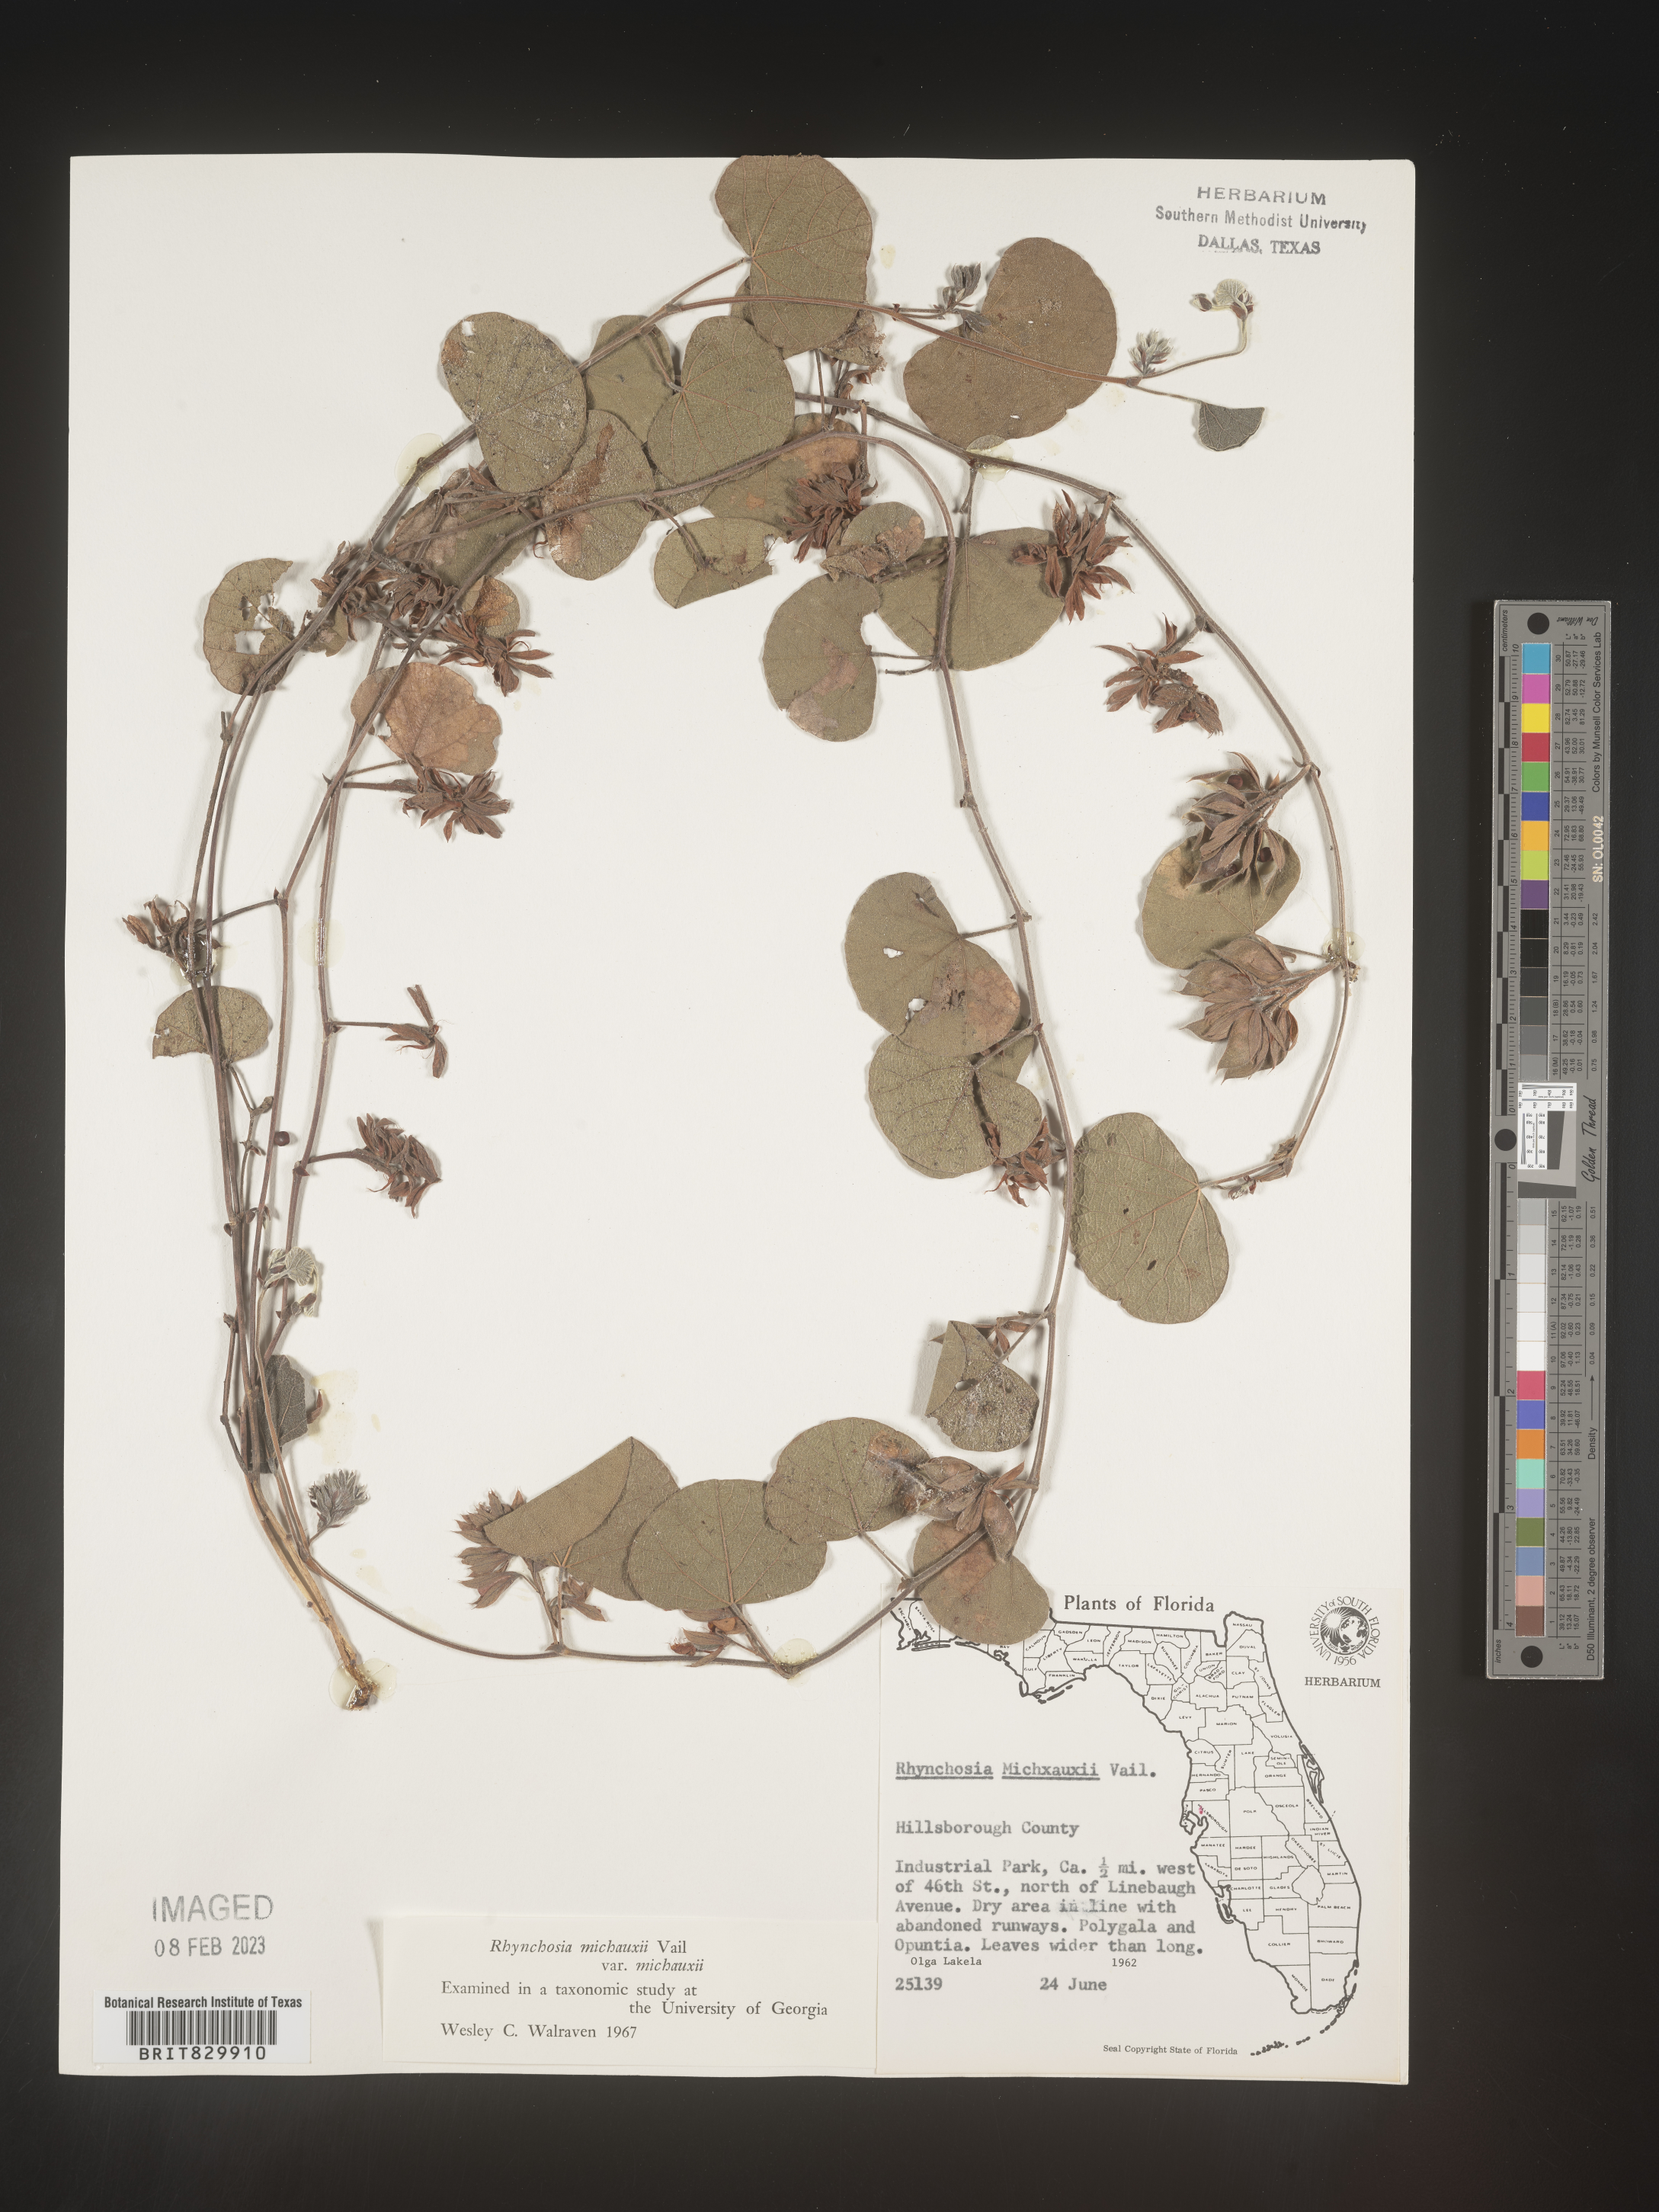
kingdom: Plantae
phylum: Tracheophyta
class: Magnoliopsida
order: Fabales
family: Fabaceae
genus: Rhynchosia
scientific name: Rhynchosia
